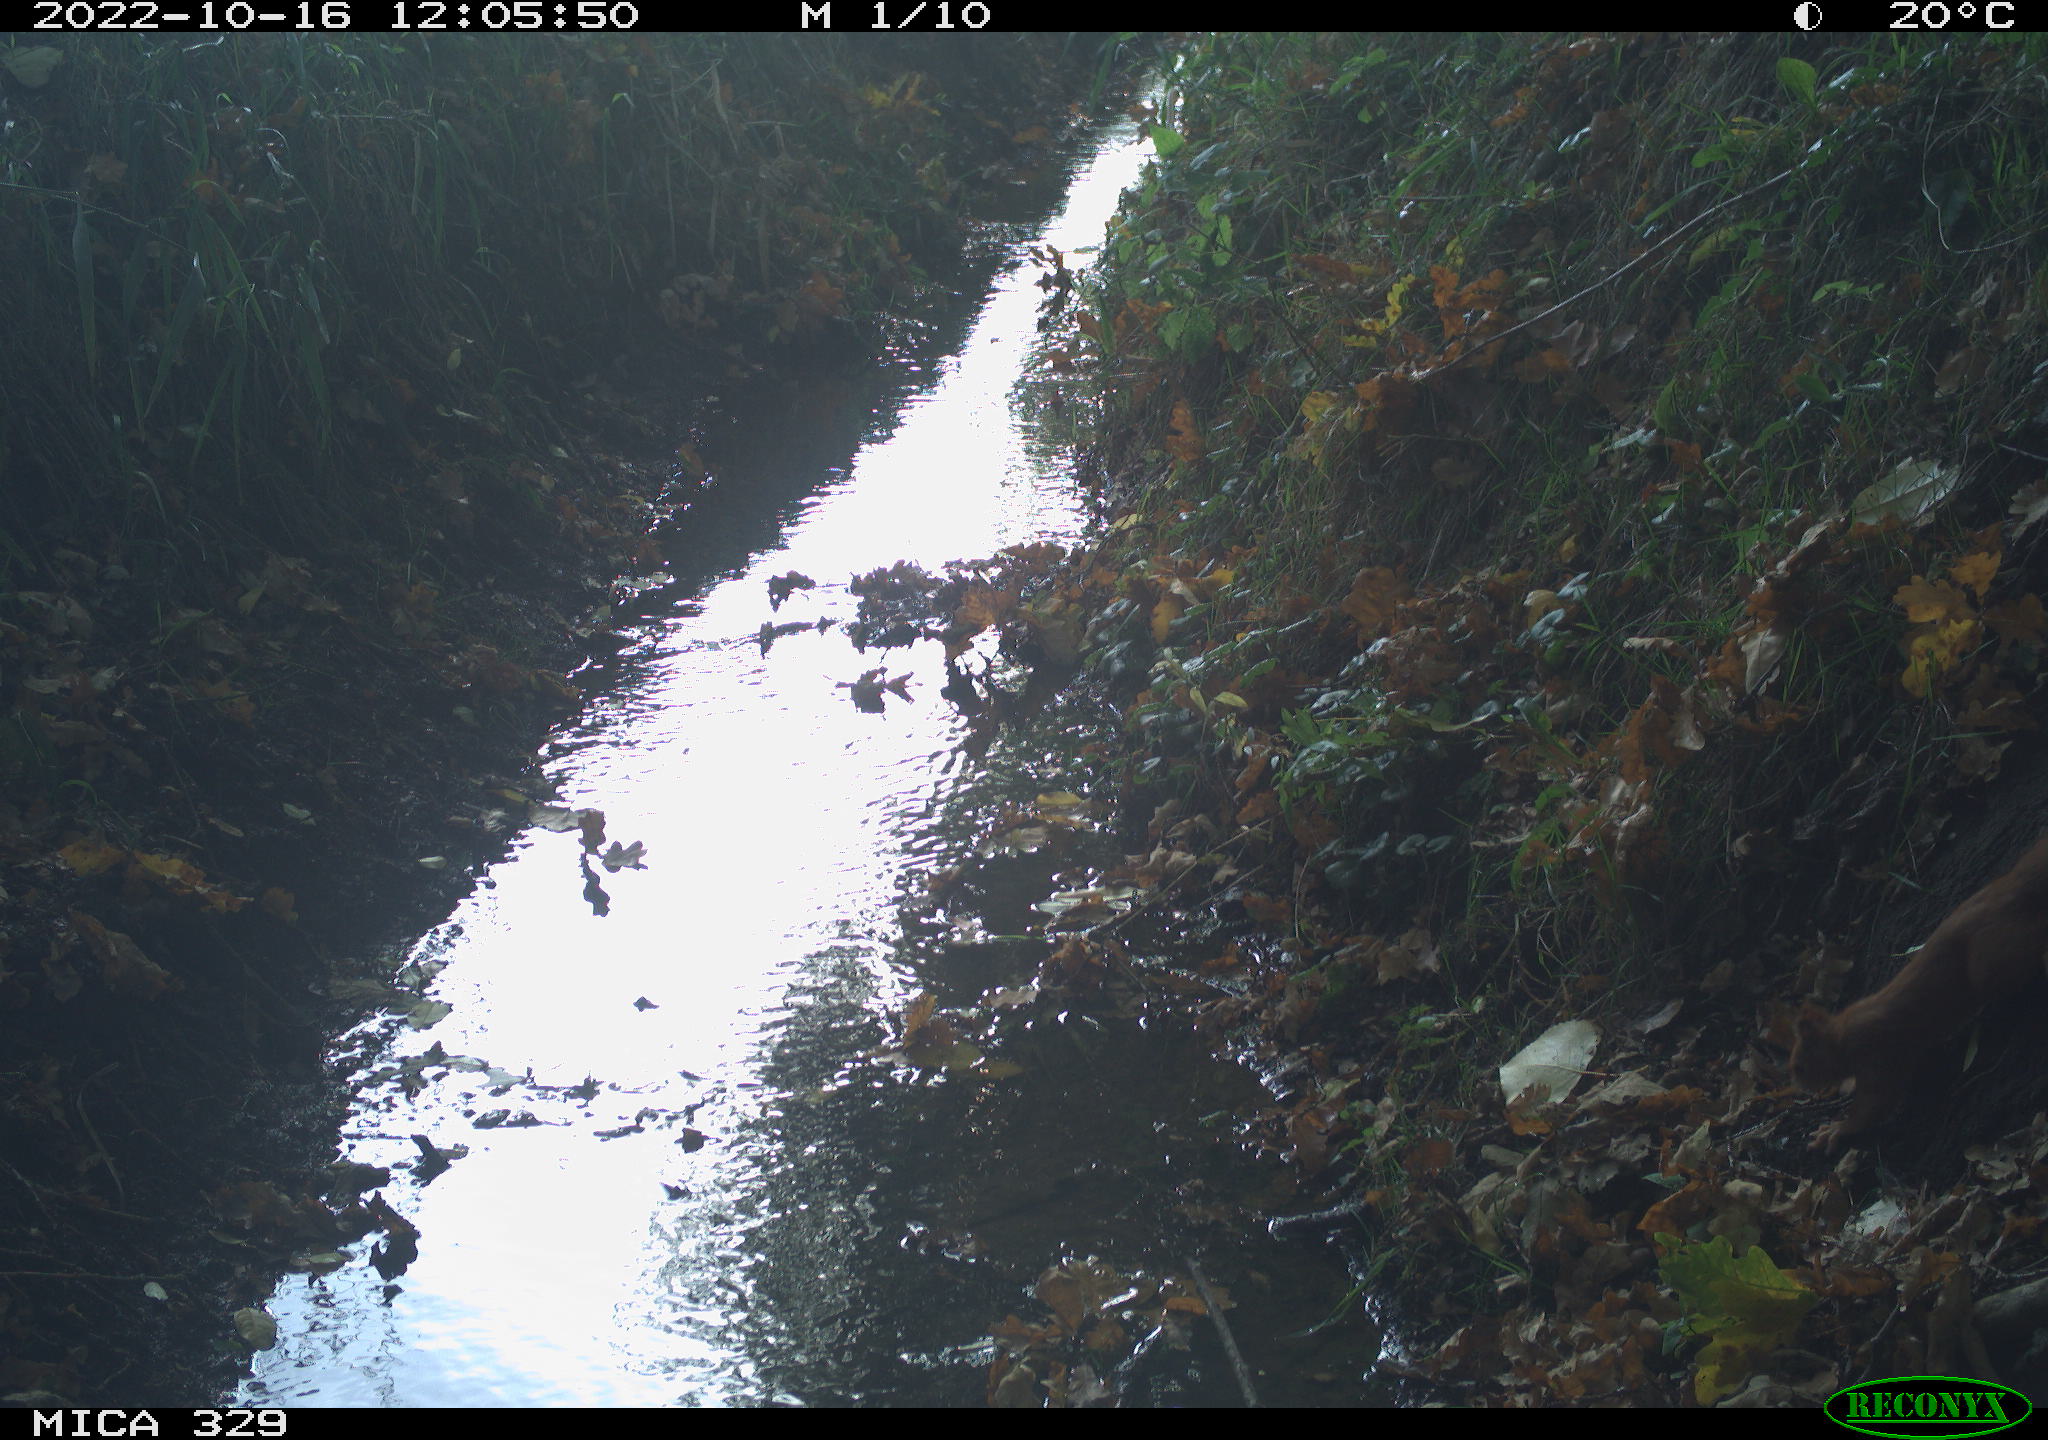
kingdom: Animalia
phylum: Chordata
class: Mammalia
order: Rodentia
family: Sciuridae
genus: Sciurus
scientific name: Sciurus vulgaris
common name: Eurasian red squirrel
